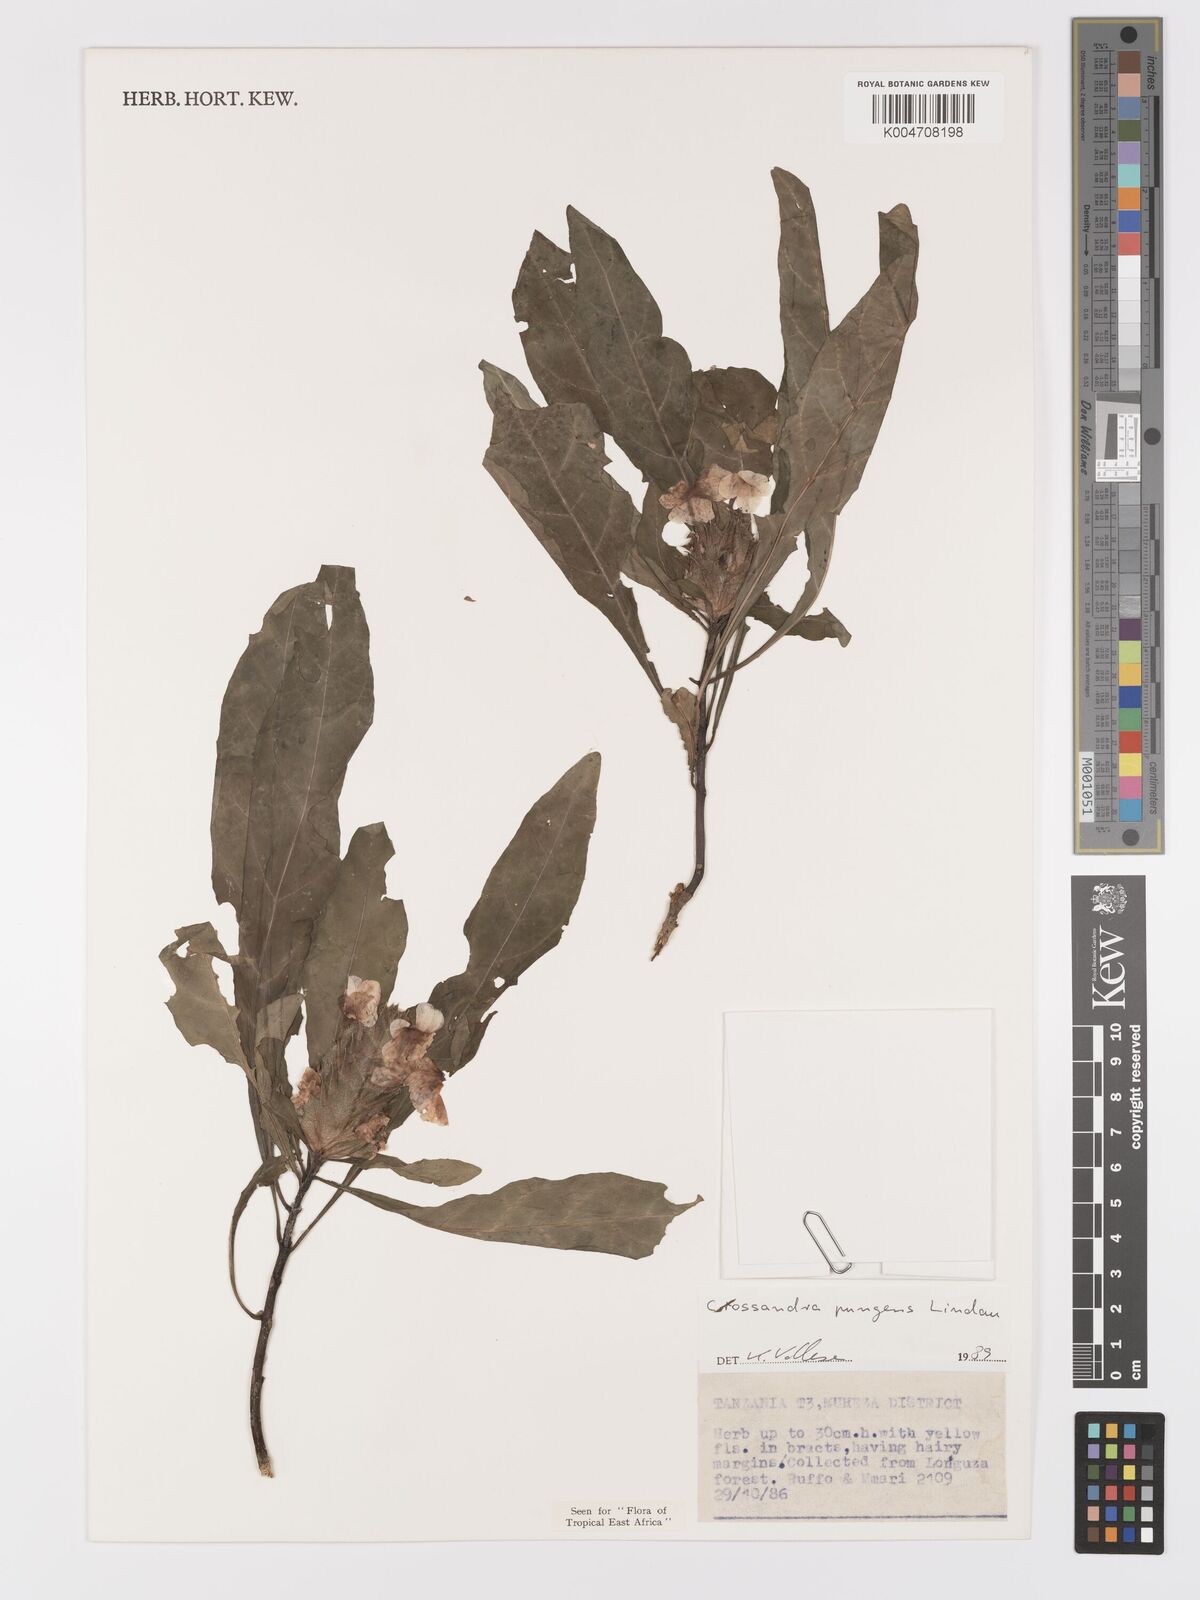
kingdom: Plantae
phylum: Tracheophyta
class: Magnoliopsida
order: Lamiales
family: Acanthaceae
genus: Crossandra
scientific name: Crossandra pungens
